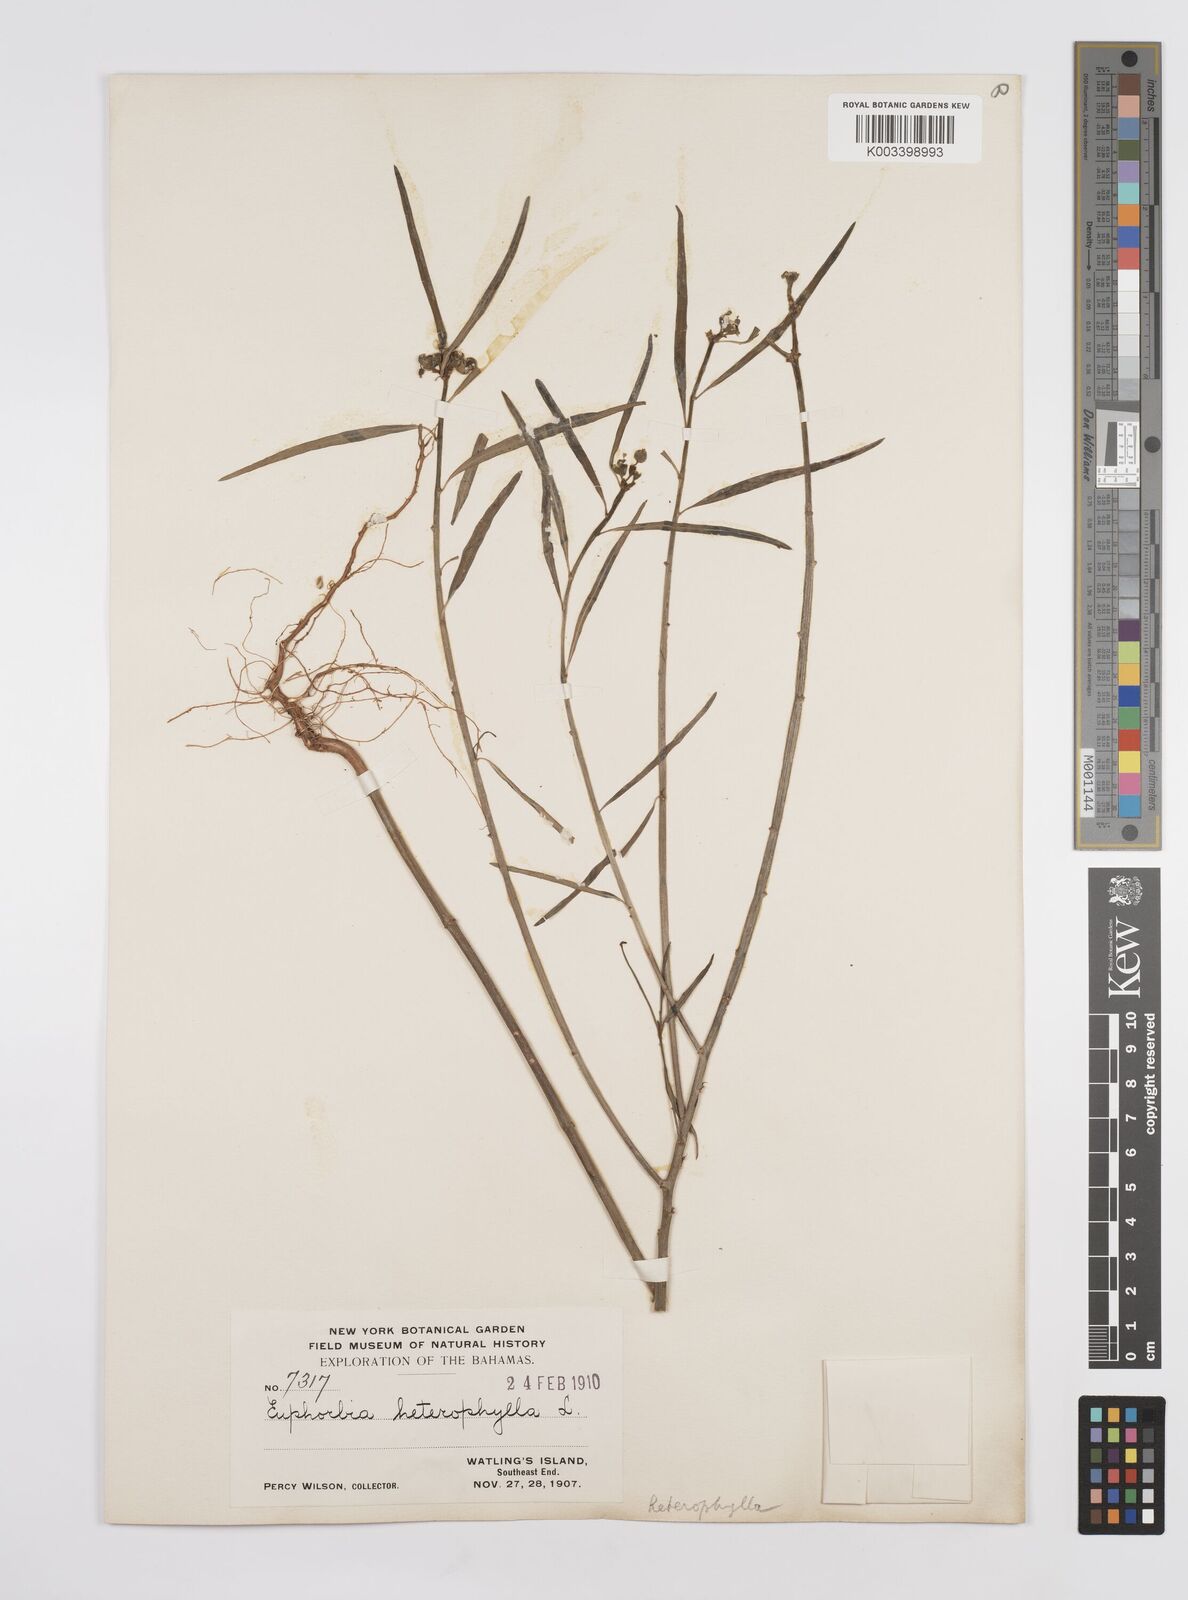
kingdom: Plantae
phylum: Tracheophyta
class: Magnoliopsida
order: Malpighiales
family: Euphorbiaceae
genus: Euphorbia
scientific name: Euphorbia heterophylla
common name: Mexican fireplant
